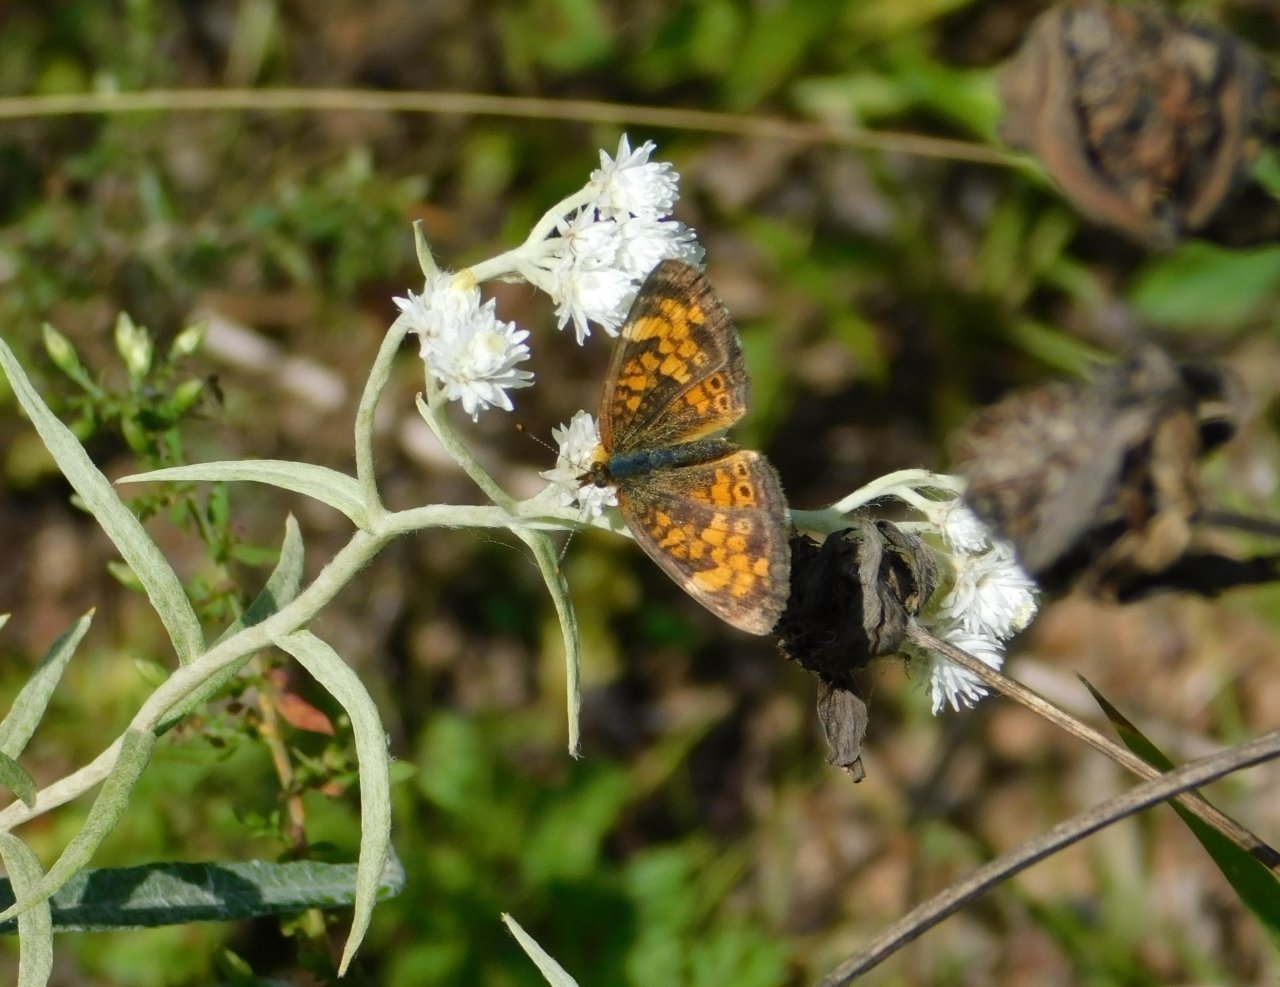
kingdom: Animalia
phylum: Arthropoda
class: Insecta
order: Lepidoptera
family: Nymphalidae
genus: Phyciodes
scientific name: Phyciodes tharos
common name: Northern Crescent
